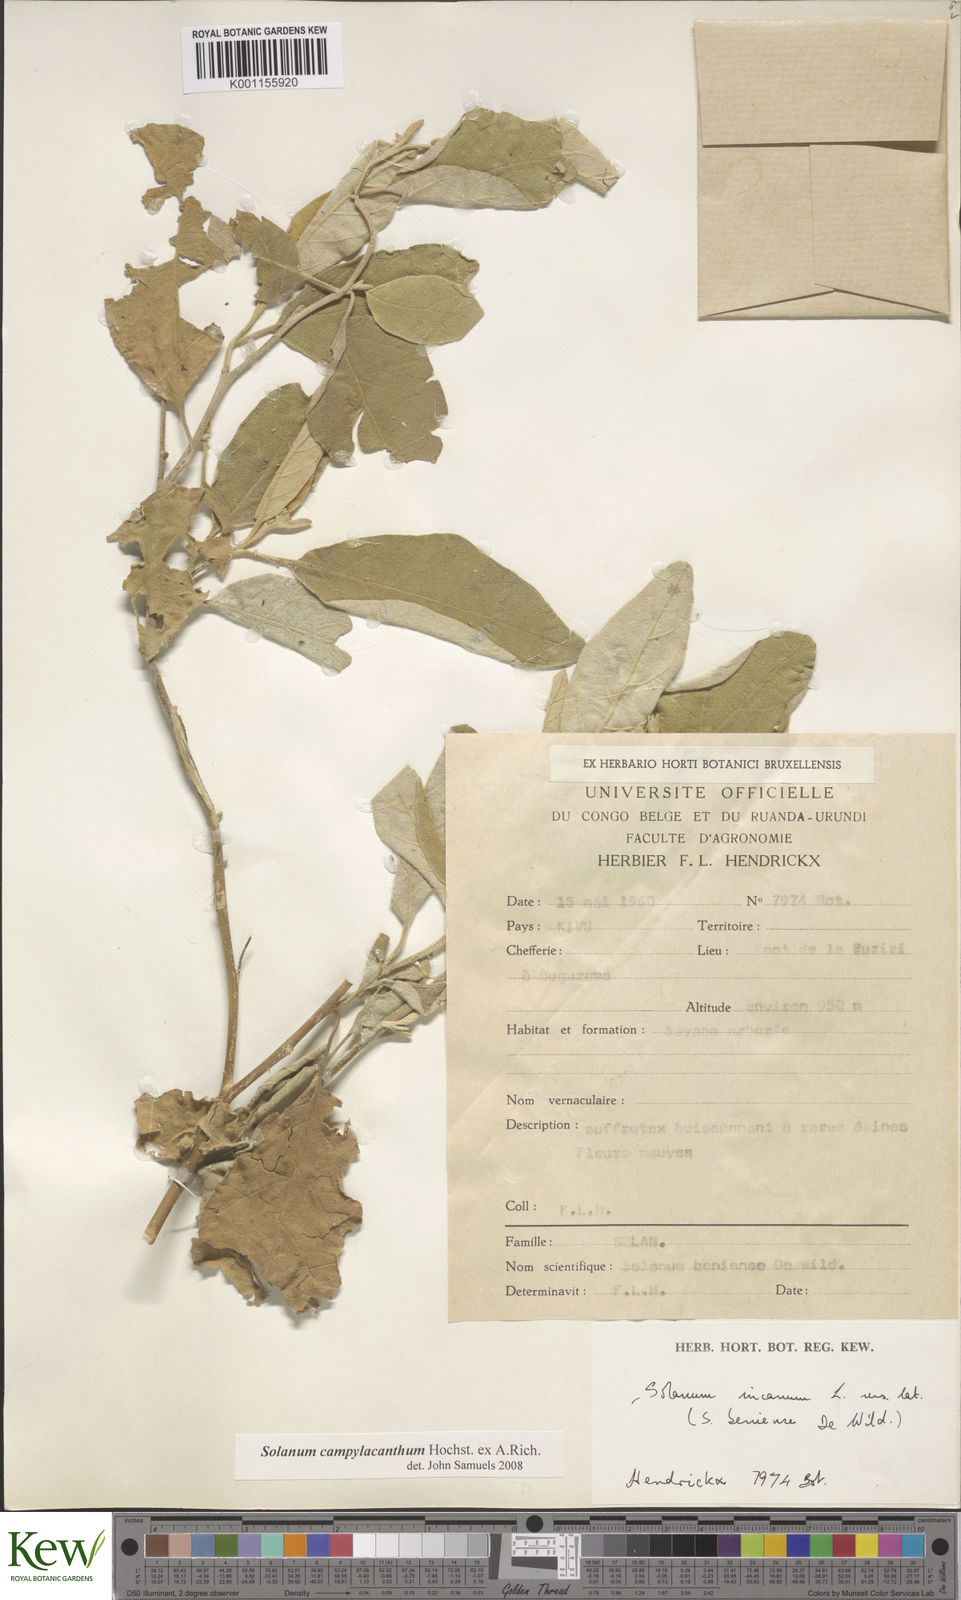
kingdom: Plantae
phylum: Tracheophyta
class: Magnoliopsida
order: Solanales
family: Solanaceae
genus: Solanum
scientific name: Solanum campylacanthum
